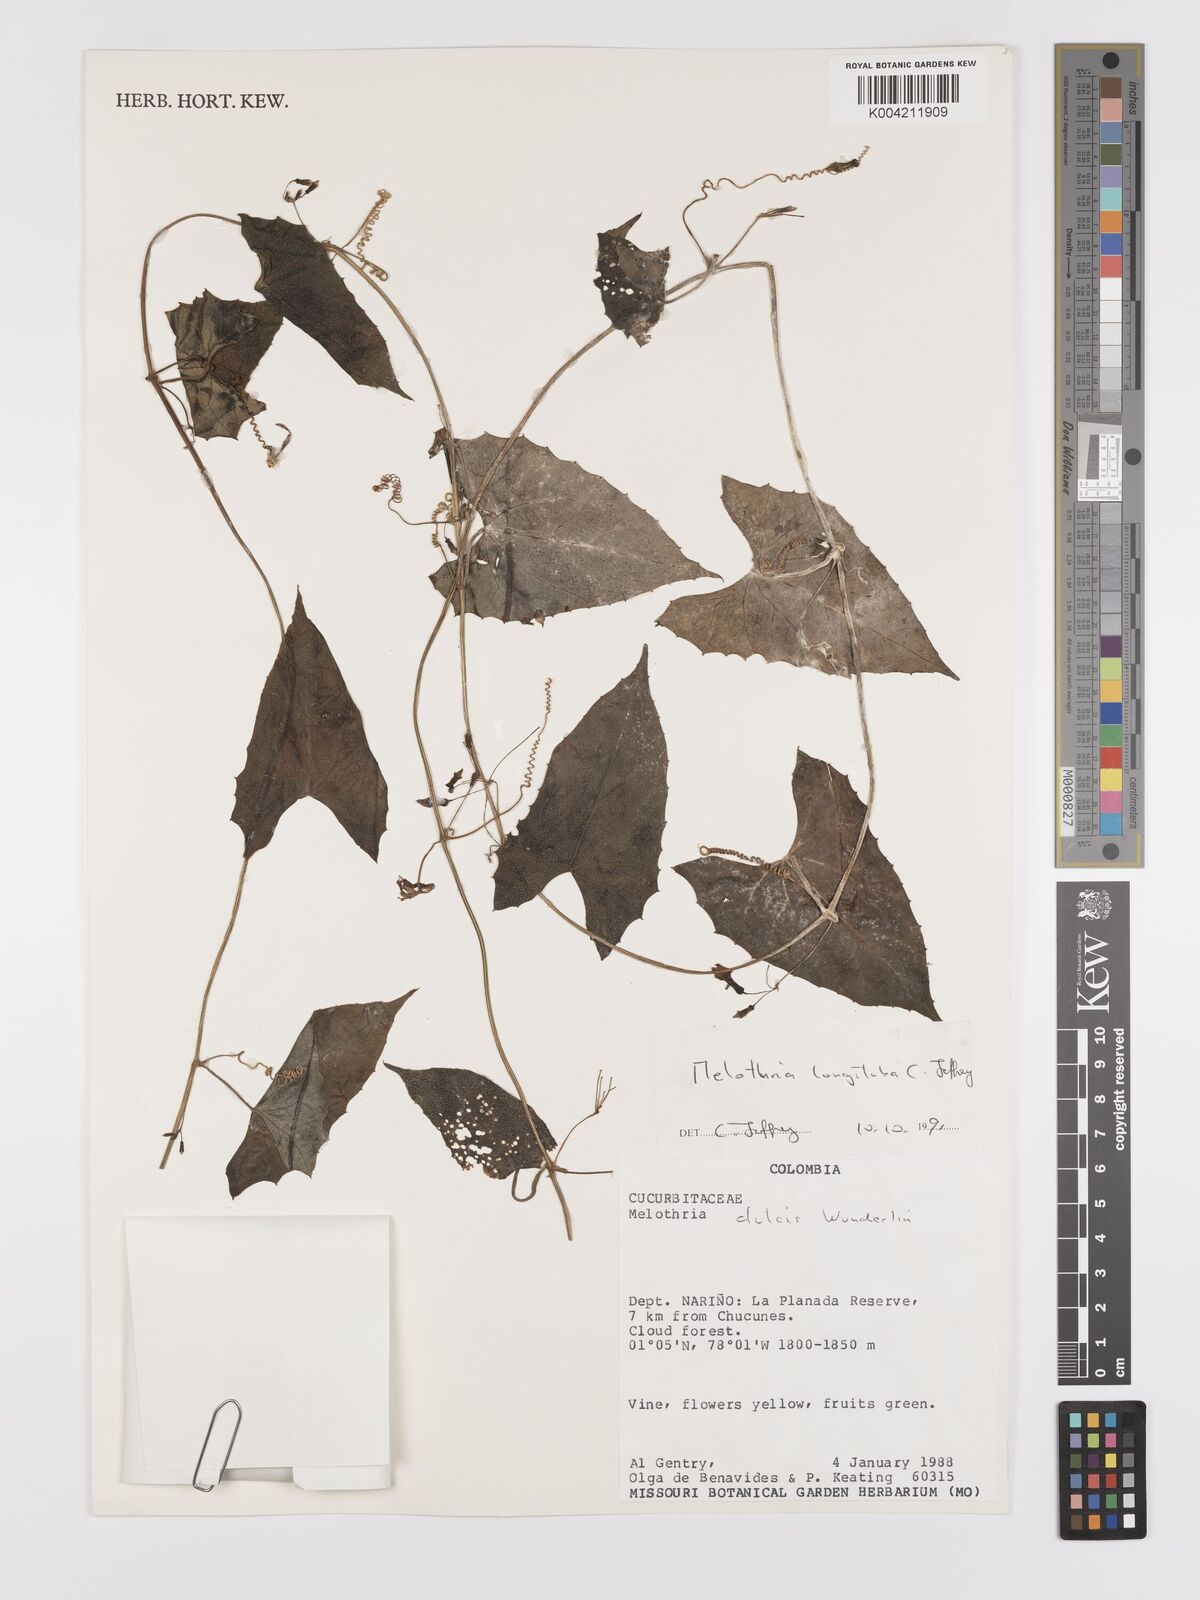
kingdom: Plantae
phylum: Tracheophyta
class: Magnoliopsida
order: Cucurbitales
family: Cucurbitaceae
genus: Melothria
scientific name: Melothria longituba
